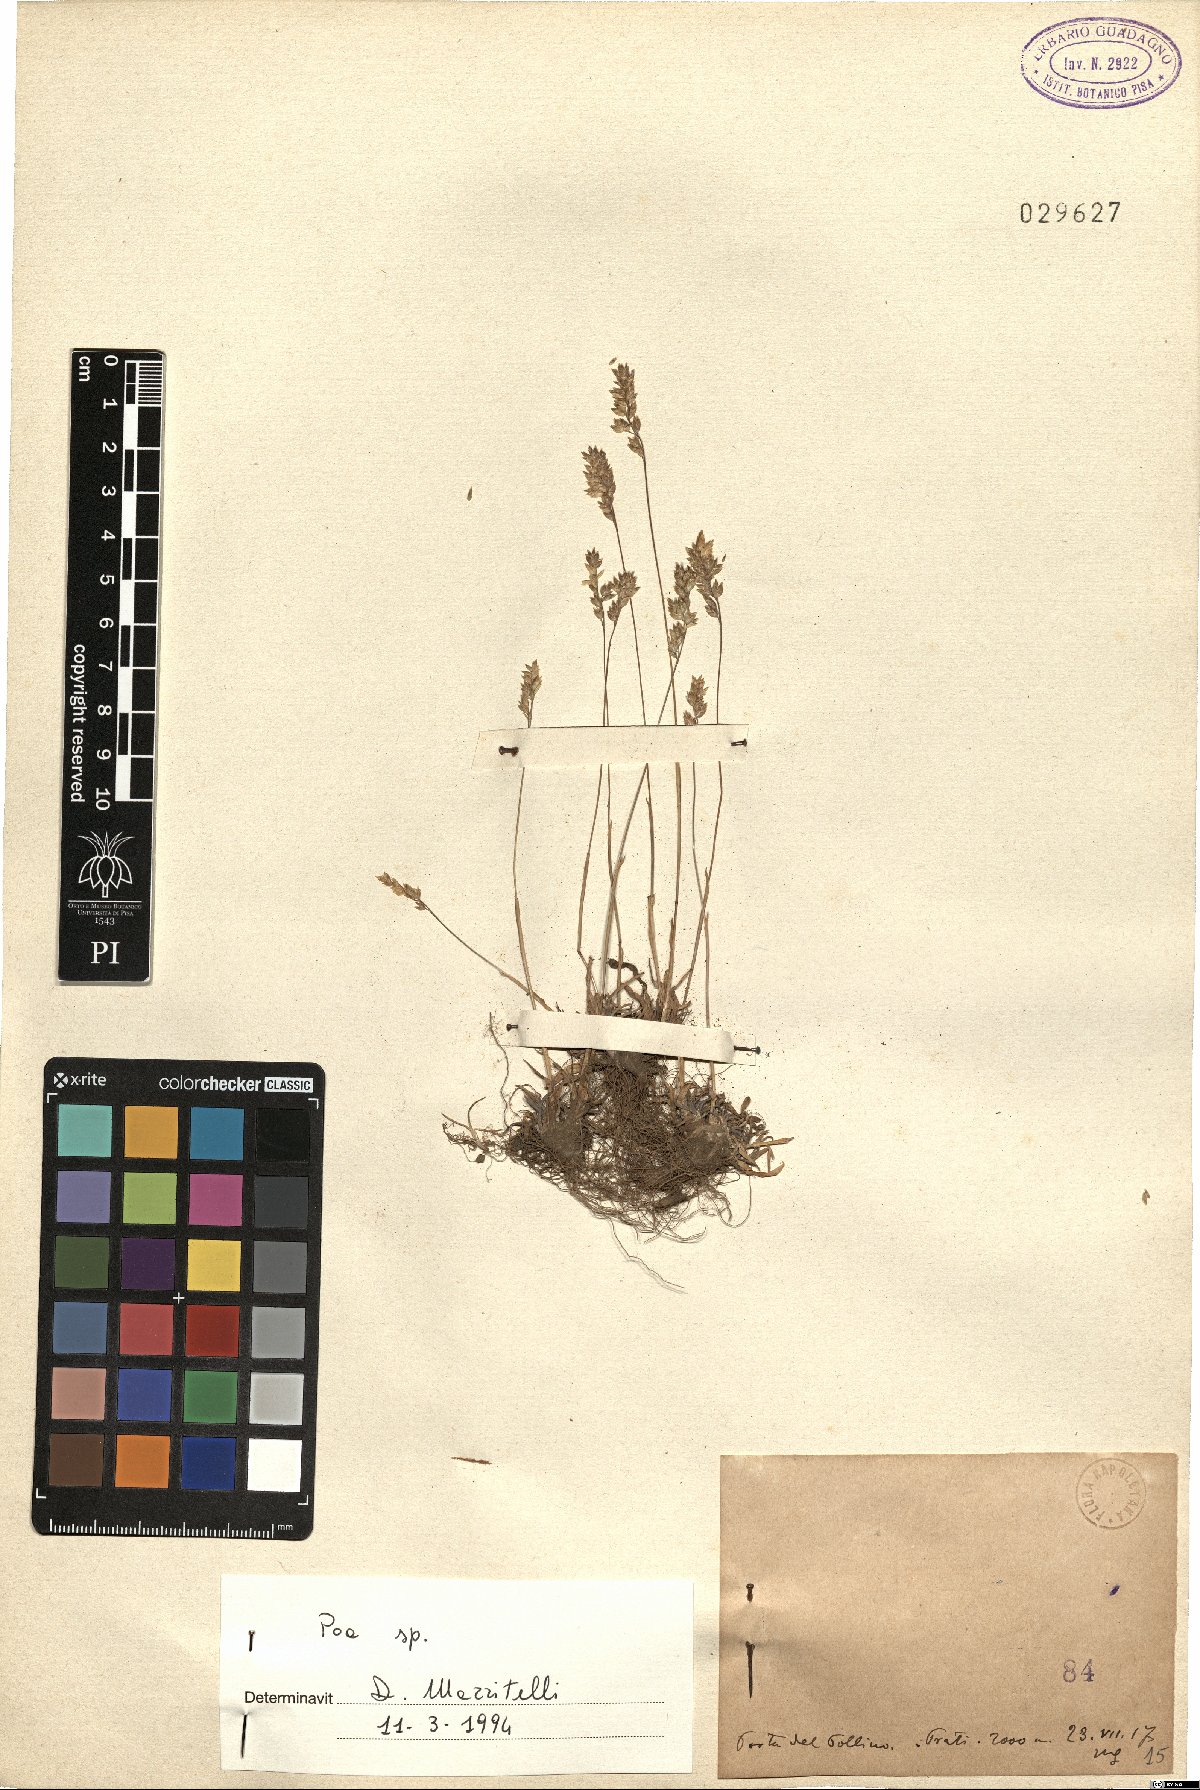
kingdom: Plantae
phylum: Tracheophyta
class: Liliopsida
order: Poales
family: Poaceae
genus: Poa
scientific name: Poa
